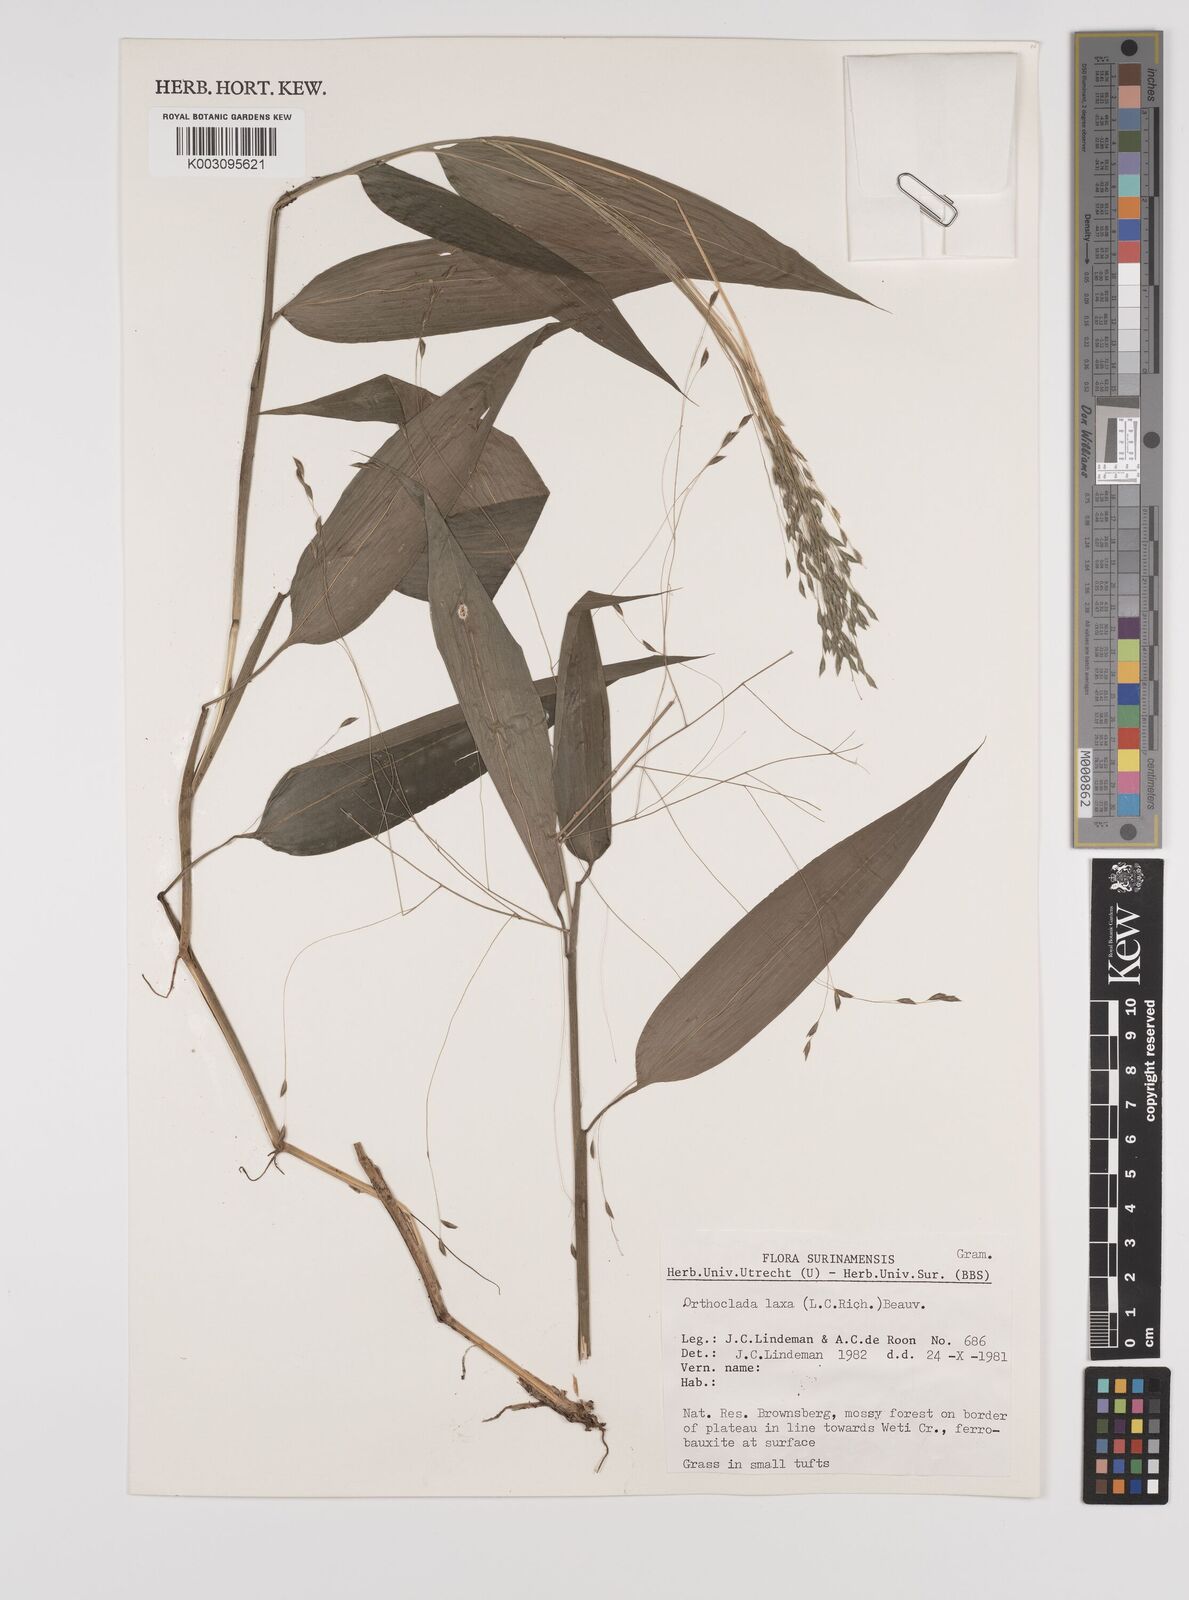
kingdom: Plantae
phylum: Tracheophyta
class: Liliopsida
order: Poales
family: Poaceae
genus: Orthoclada
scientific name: Orthoclada laxa
